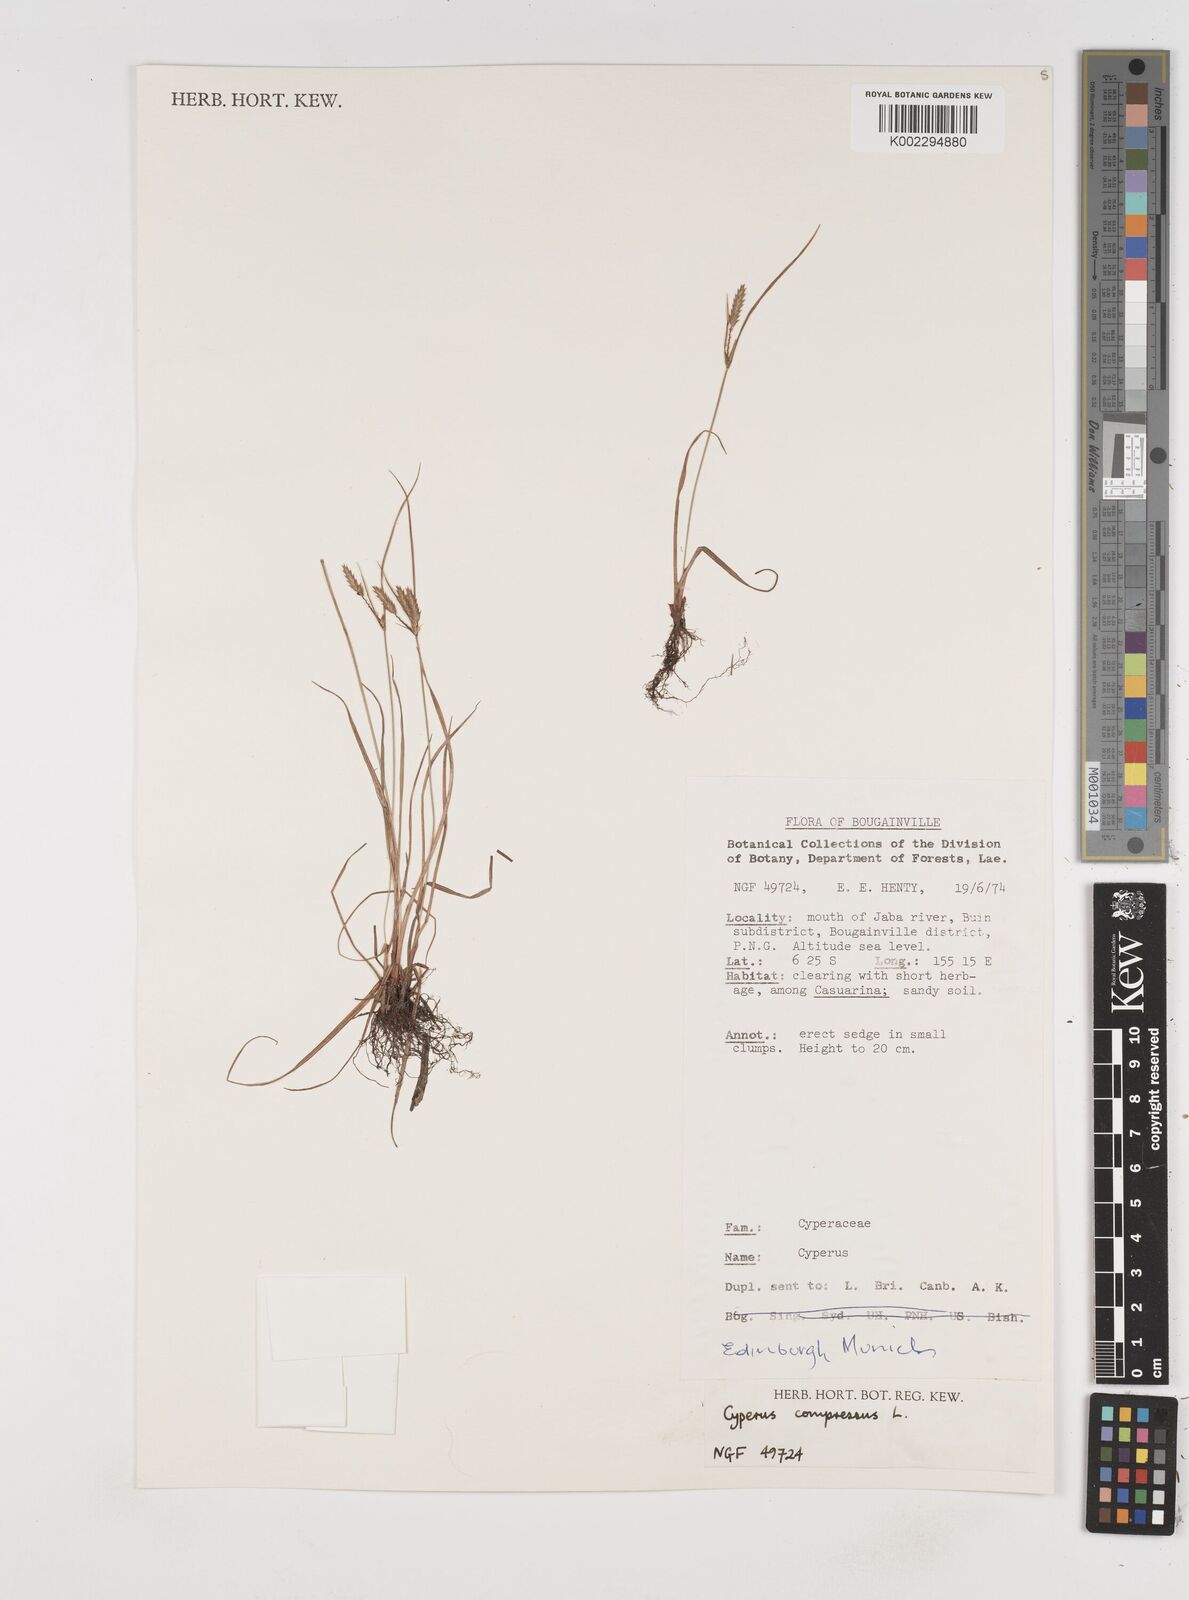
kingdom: Plantae
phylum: Tracheophyta
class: Liliopsida
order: Poales
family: Cyperaceae
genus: Cyperus
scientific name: Cyperus compressus
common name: Poorland flatsedge
